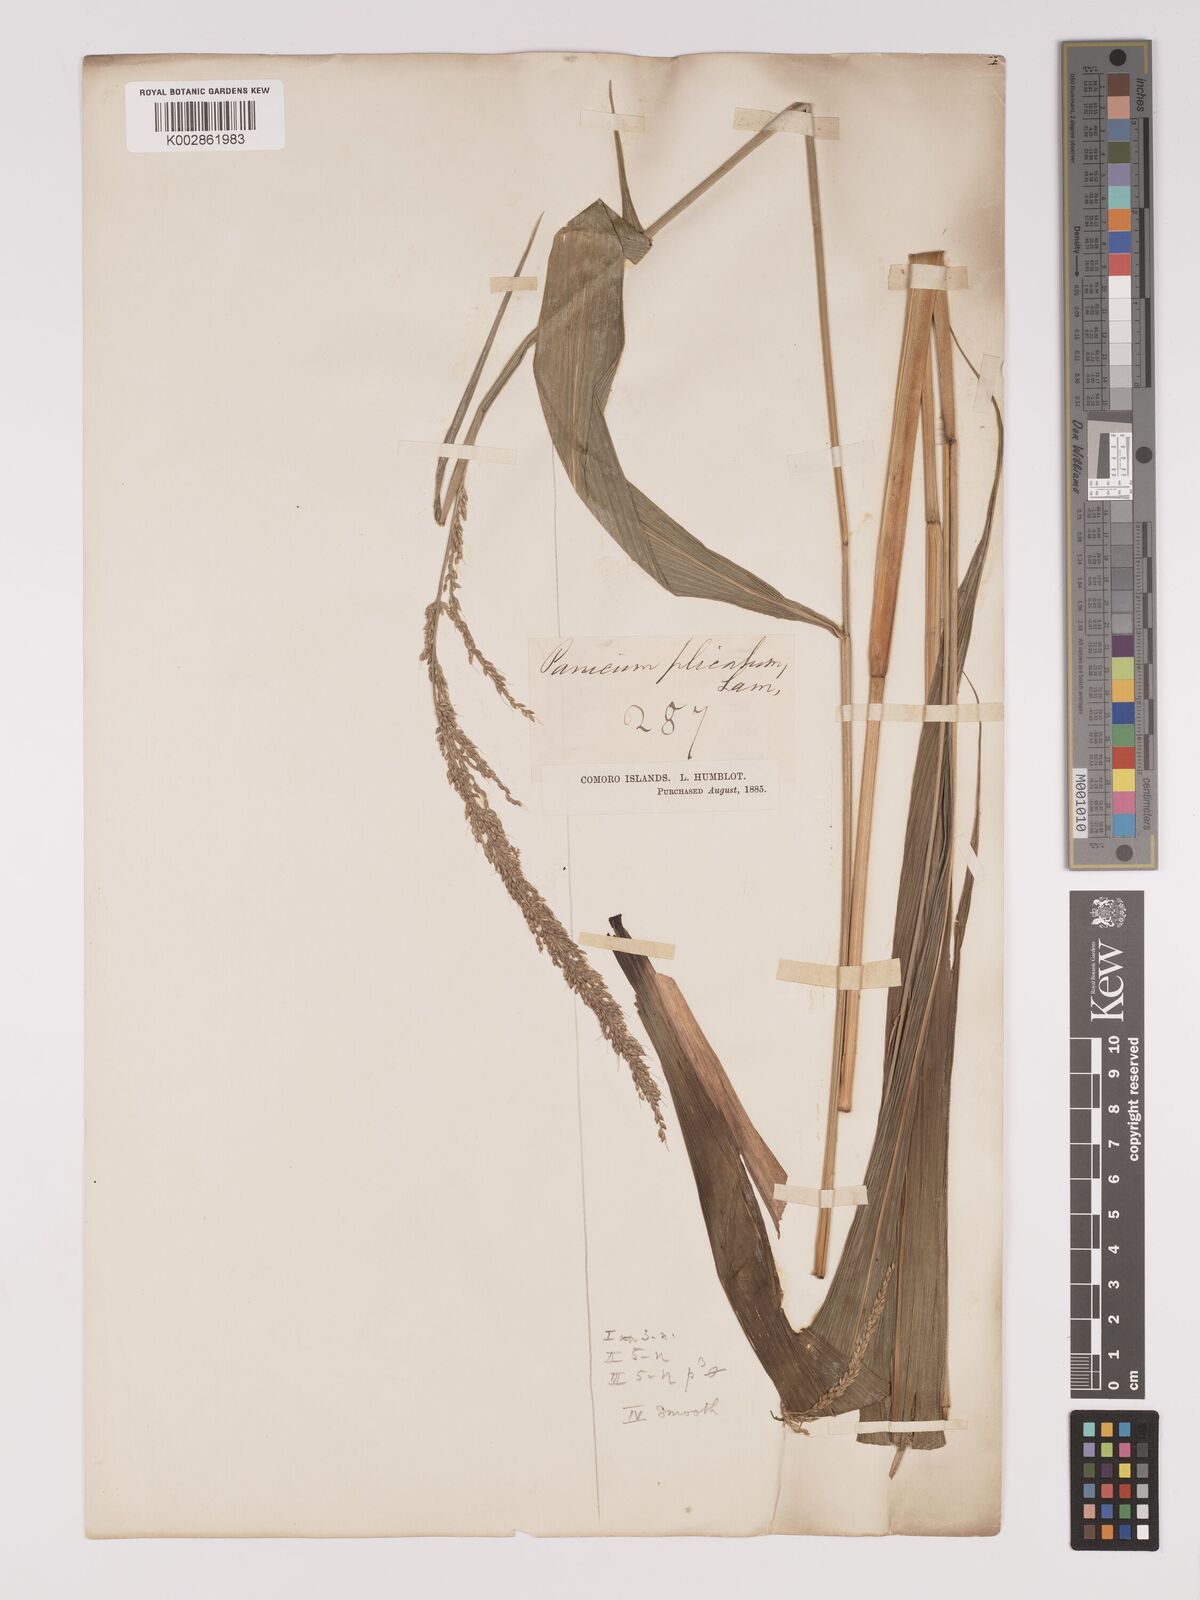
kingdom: Plantae
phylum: Tracheophyta
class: Liliopsida
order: Poales
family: Poaceae
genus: Setaria
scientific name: Setaria megaphylla
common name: Bigleaf bristlegrass
